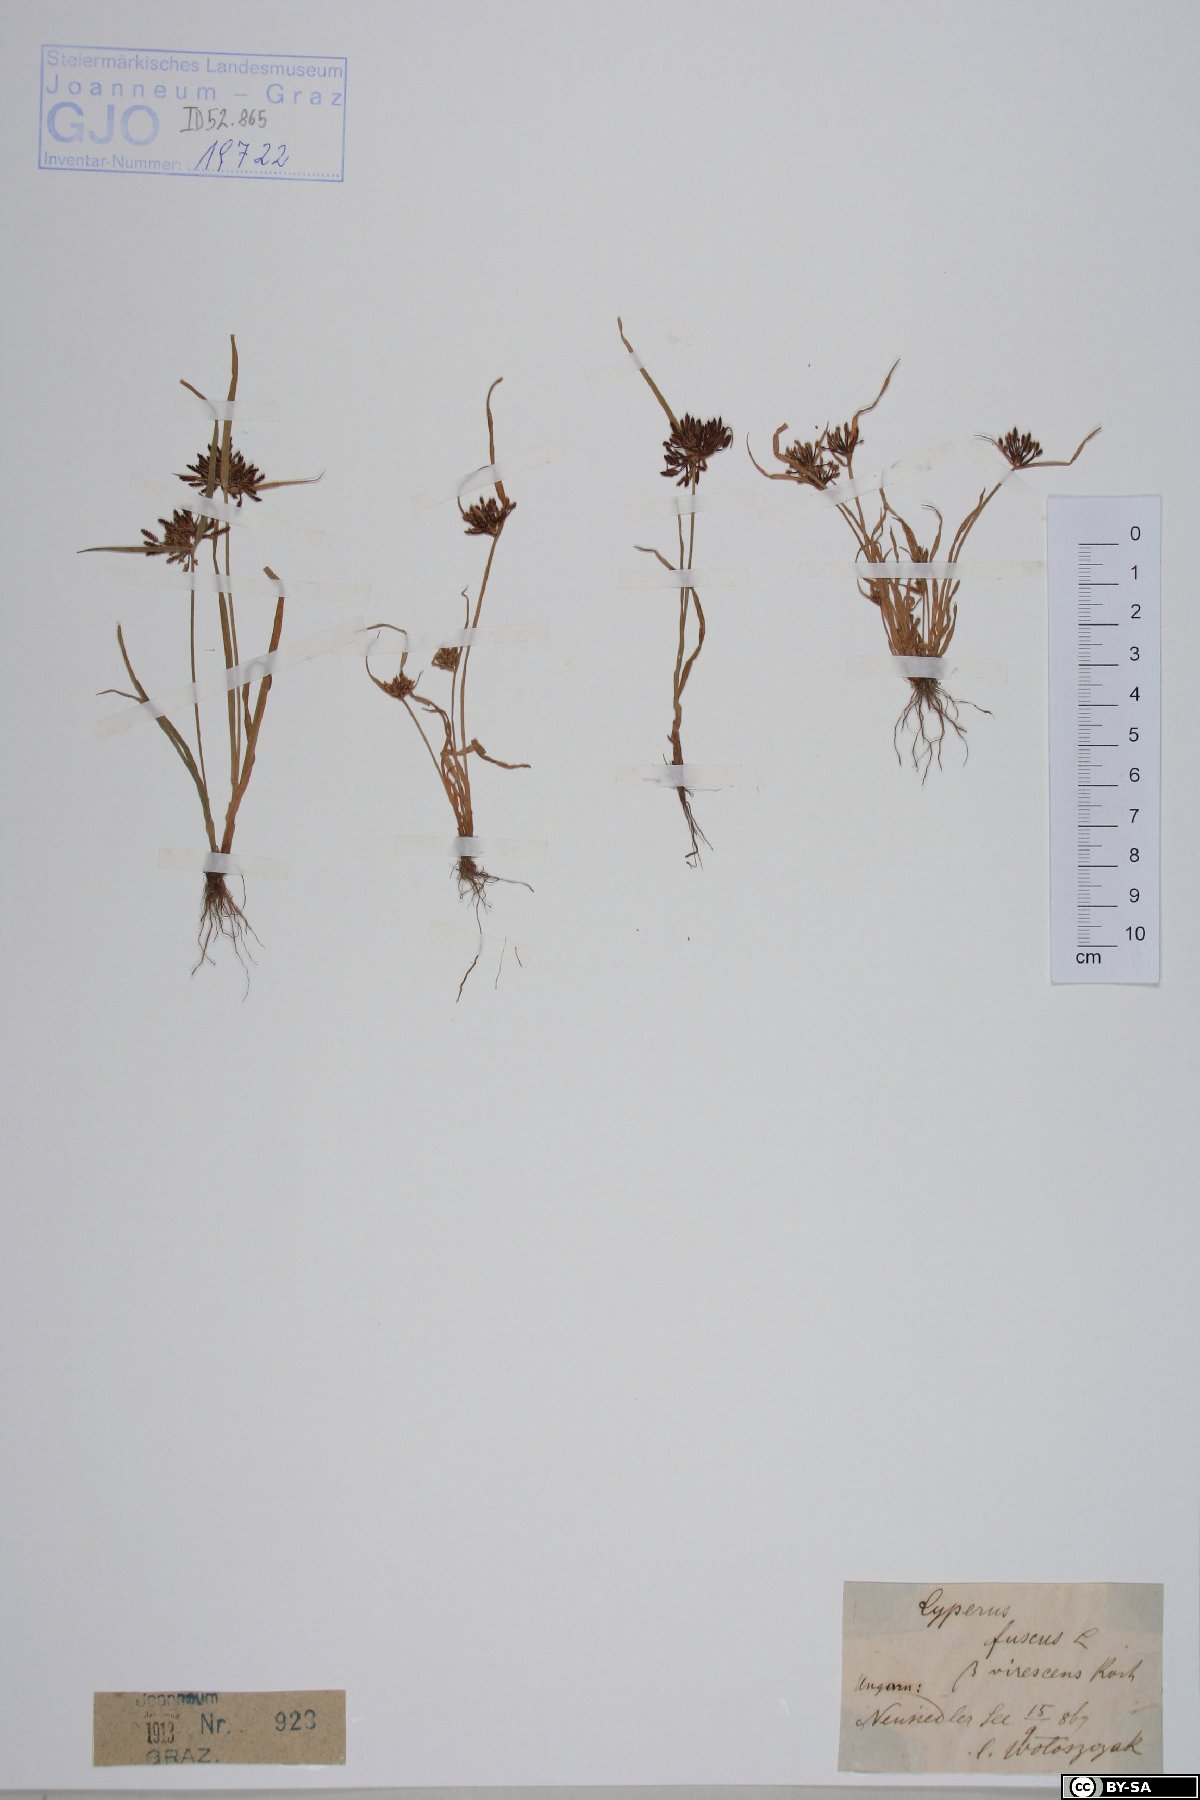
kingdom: Plantae
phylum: Tracheophyta
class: Liliopsida
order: Poales
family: Cyperaceae
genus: Cyperus
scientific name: Cyperus fuscus
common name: Brown galingale
